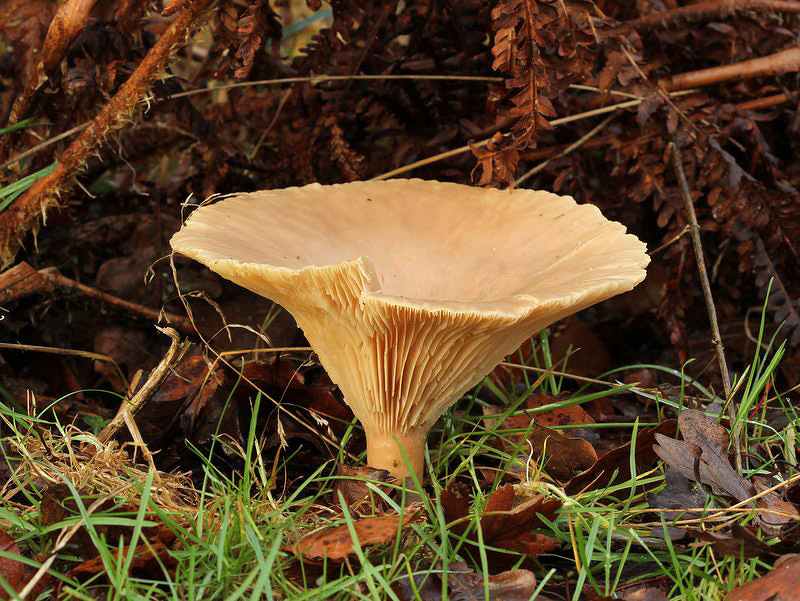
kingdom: Fungi
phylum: Basidiomycota
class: Agaricomycetes
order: Agaricales
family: Tricholomataceae
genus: Infundibulicybe
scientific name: Infundibulicybe geotropa
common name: stor tragthat
